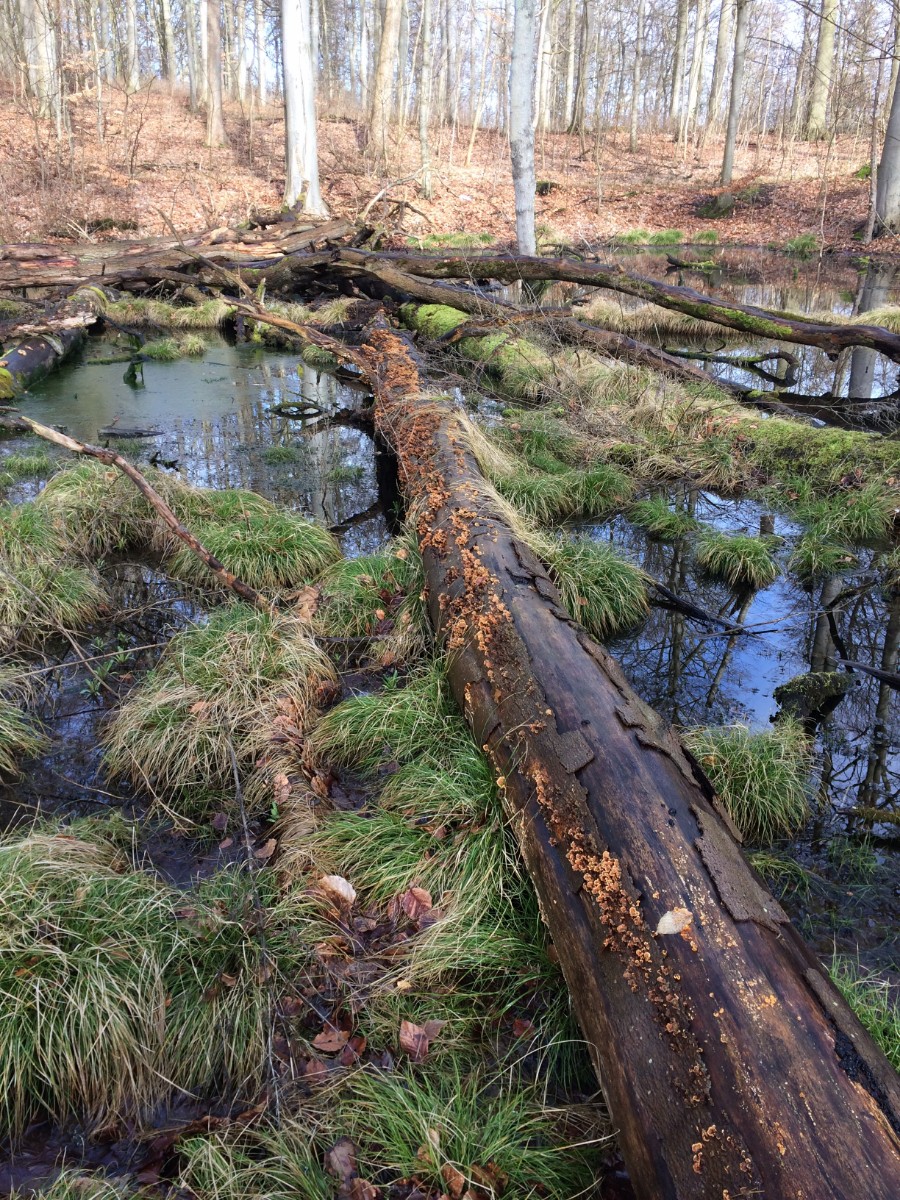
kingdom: Fungi
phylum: Basidiomycota
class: Agaricomycetes
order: Russulales
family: Stereaceae
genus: Stereum
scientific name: Stereum hirsutum
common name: håret lædersvamp
